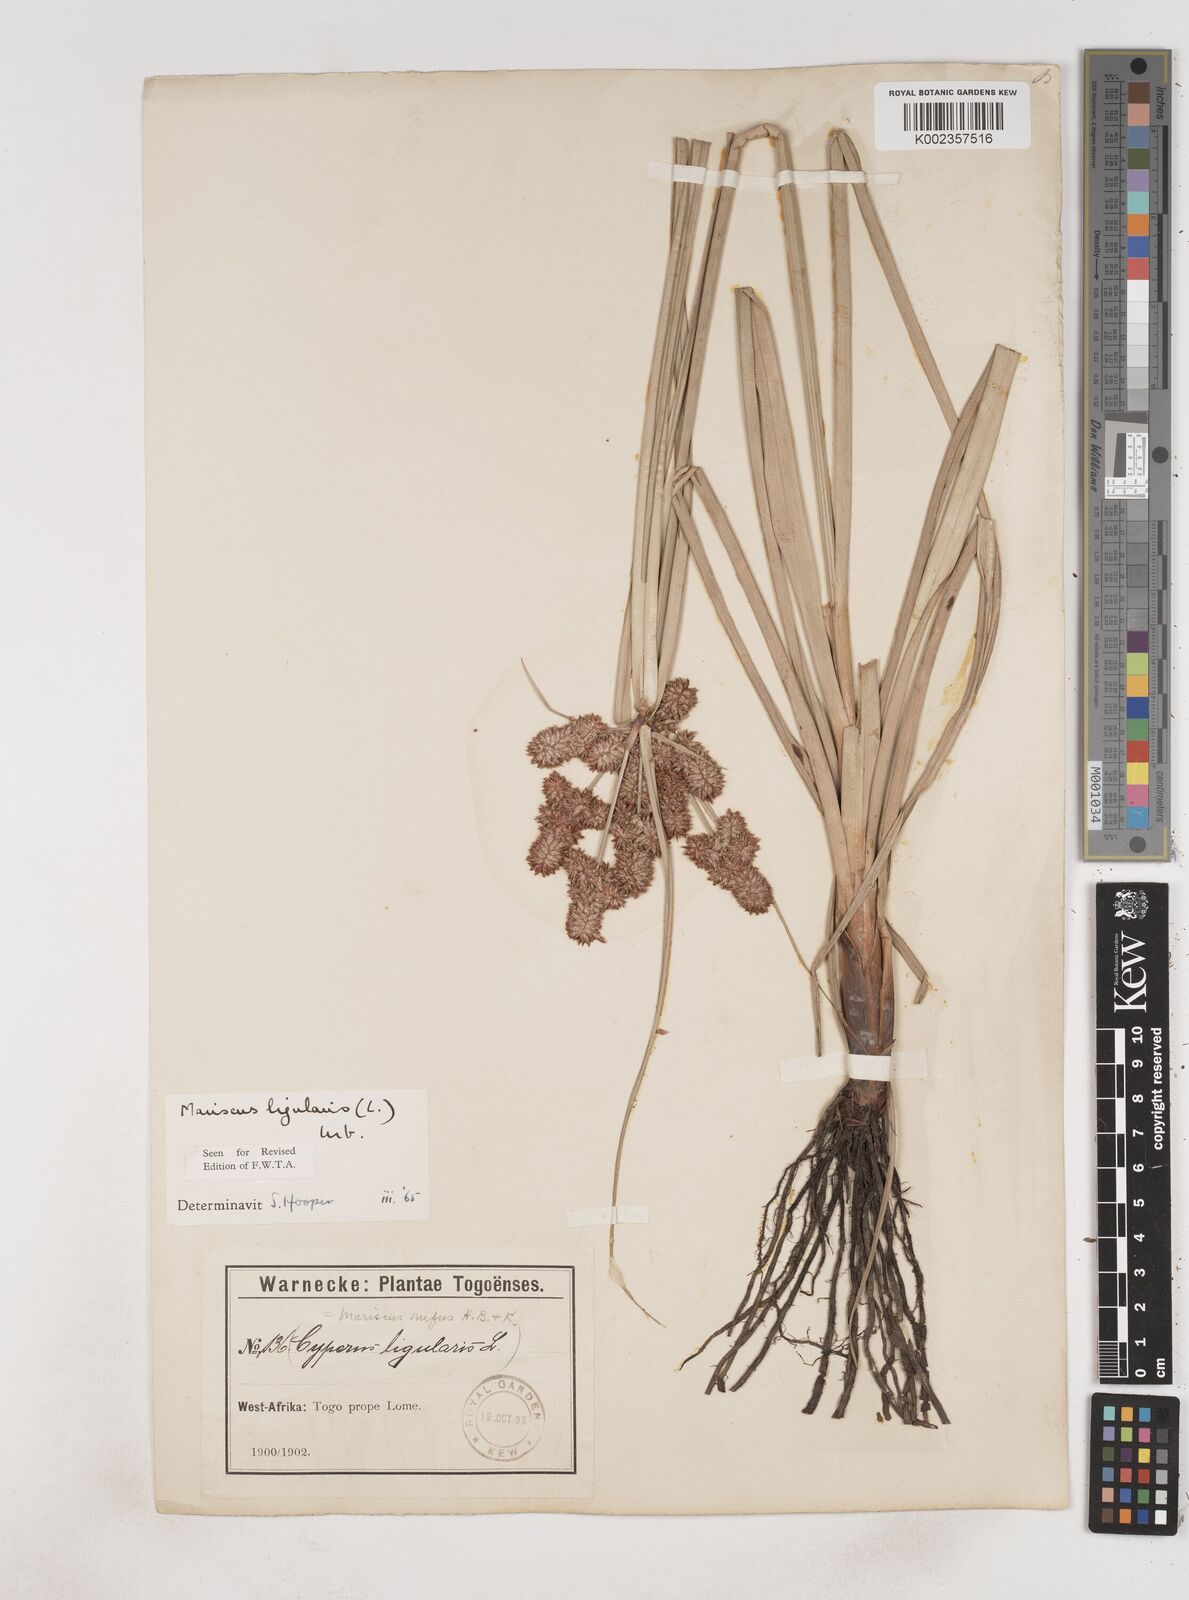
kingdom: Plantae
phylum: Tracheophyta
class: Liliopsida
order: Poales
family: Cyperaceae
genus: Cyperus
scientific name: Cyperus ligularis
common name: Swamp flat sedge
